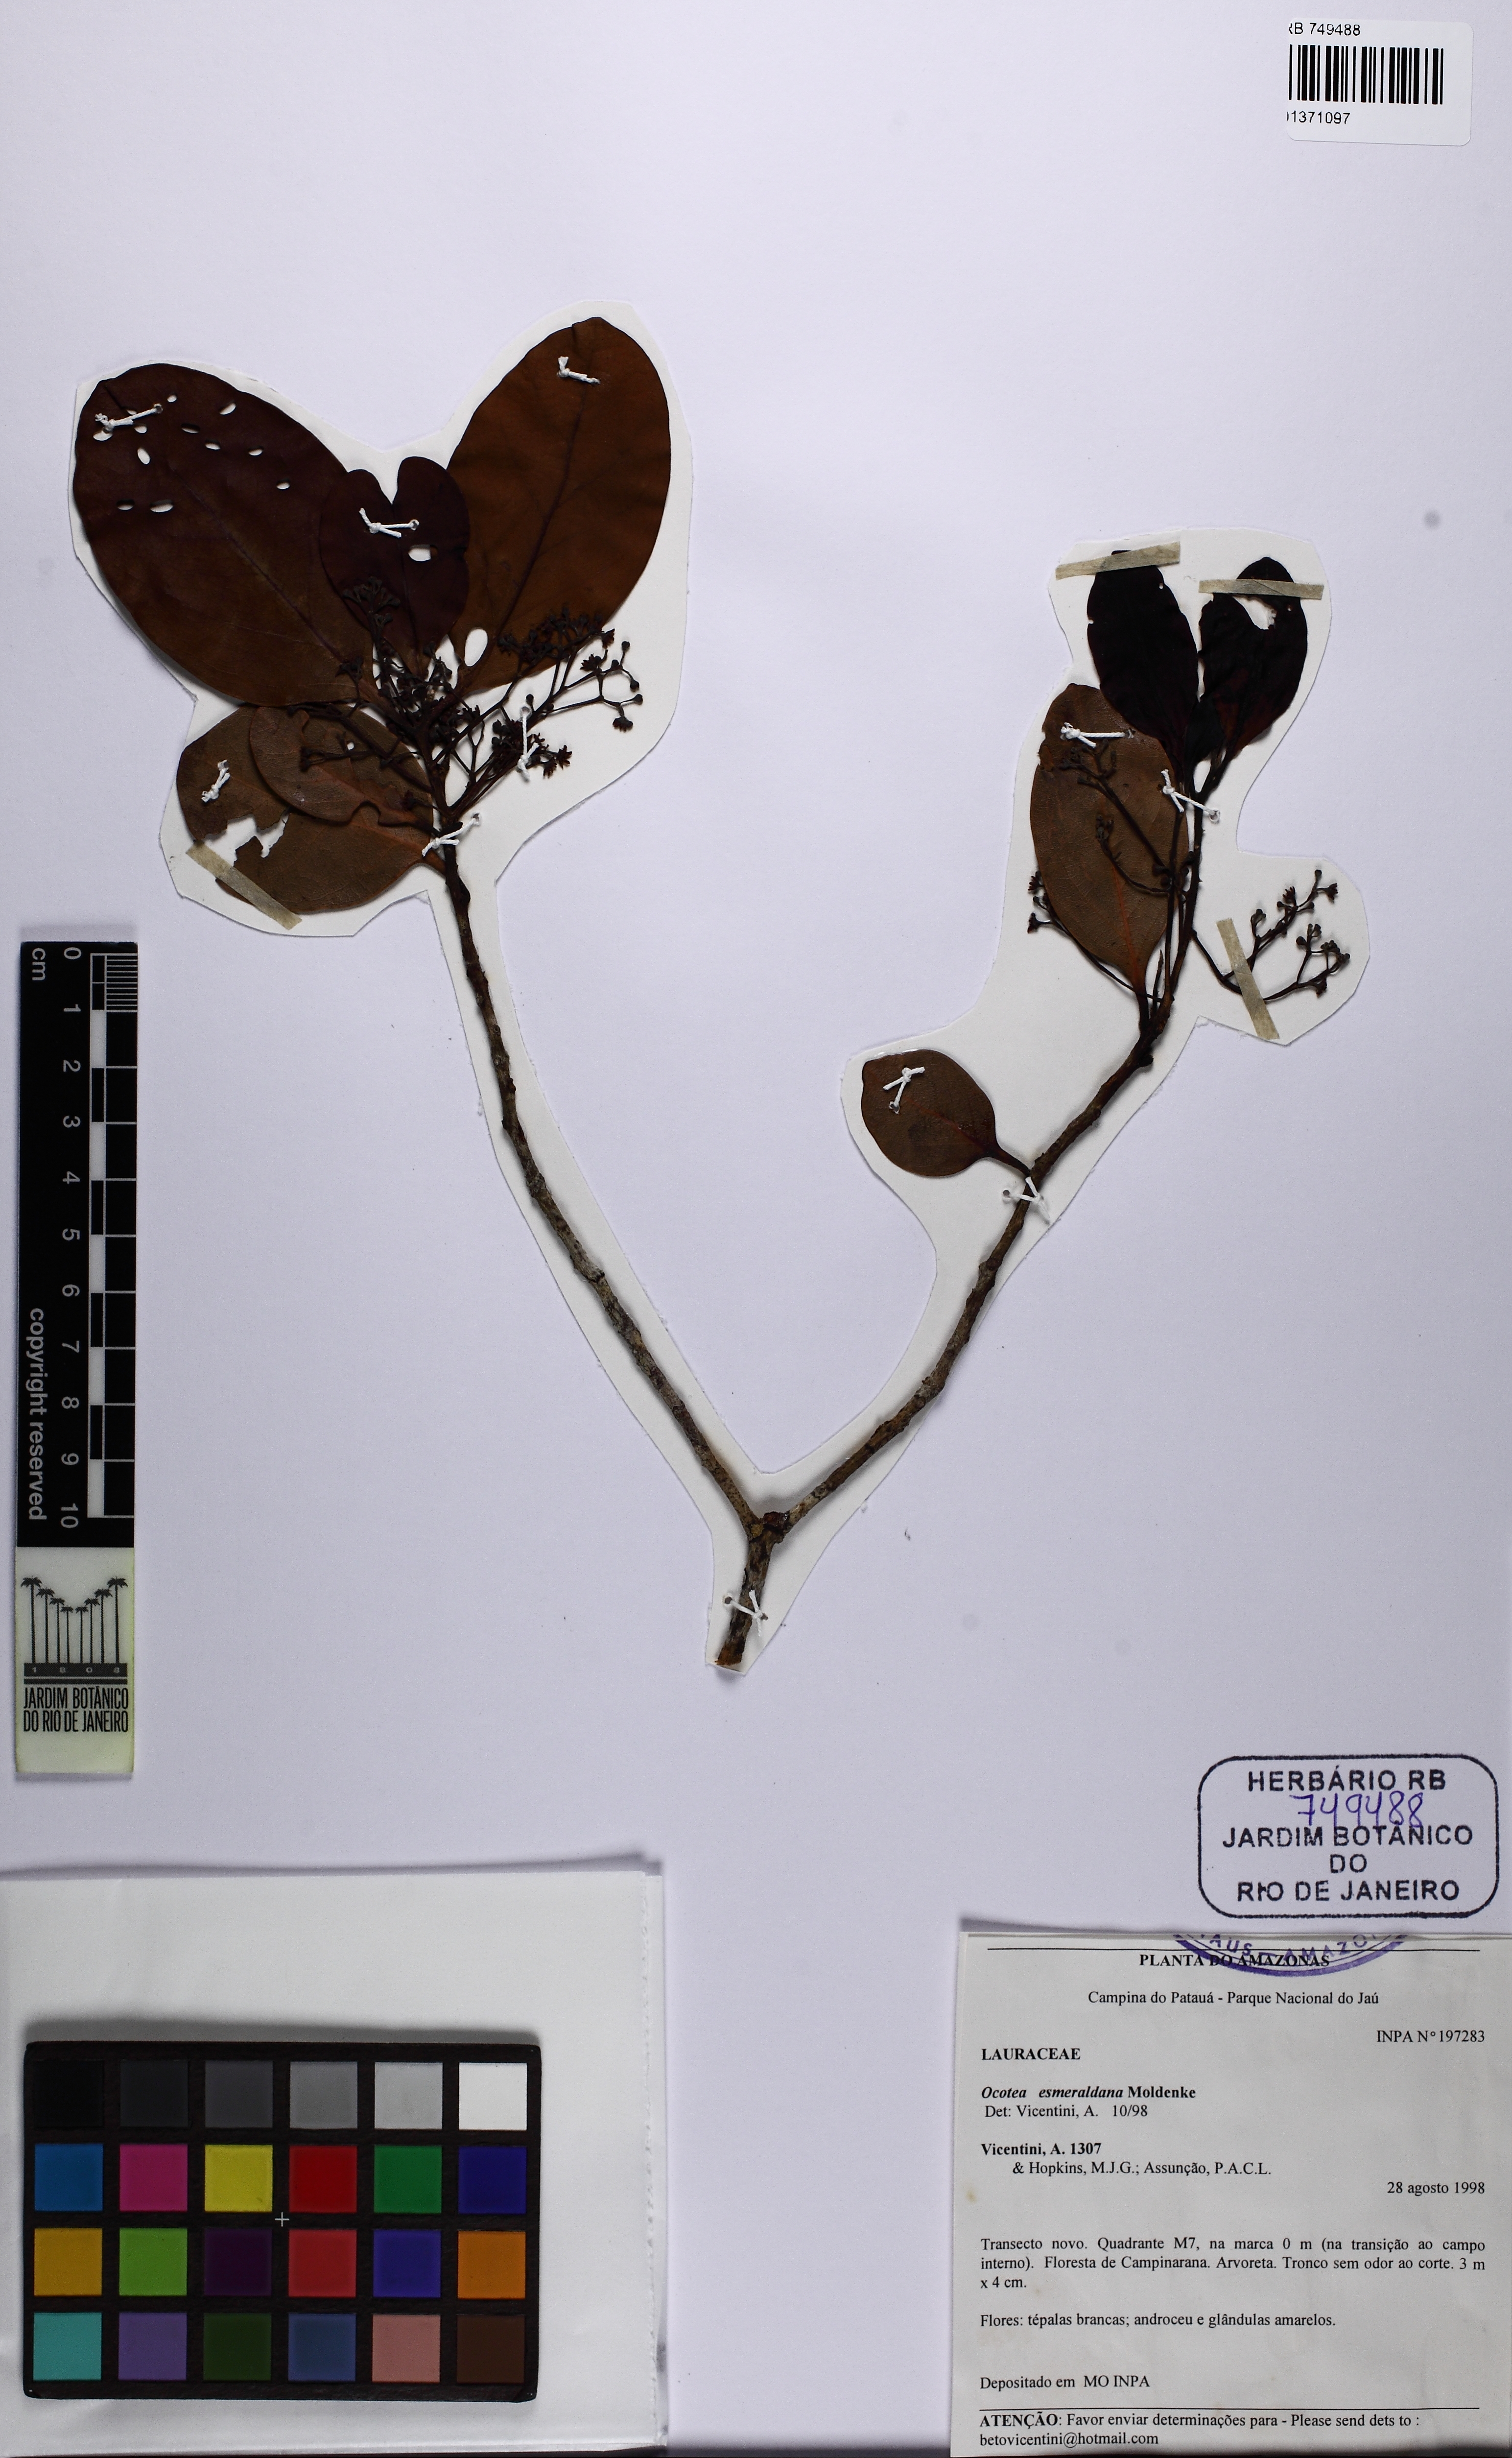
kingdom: Plantae
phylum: Tracheophyta
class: Magnoliopsida
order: Laurales
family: Lauraceae
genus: Ocotea
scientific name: Ocotea esmeraldana
